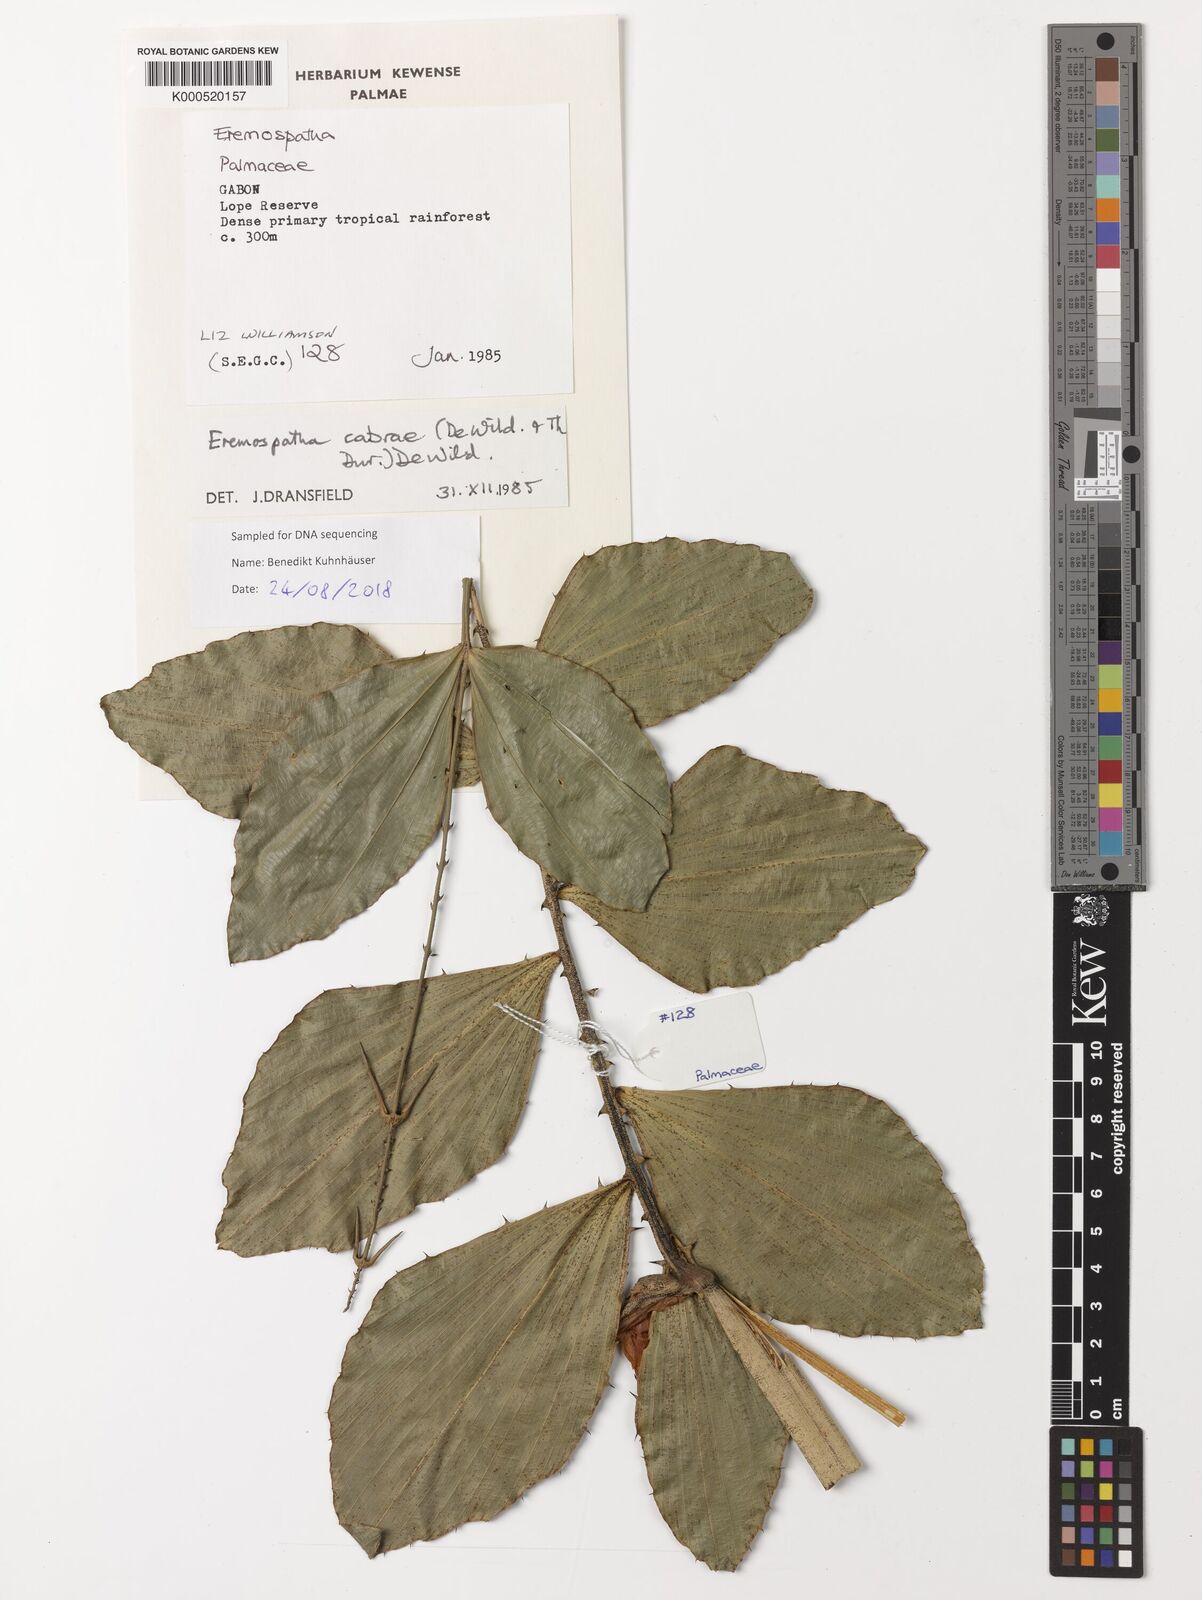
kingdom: Plantae
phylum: Tracheophyta
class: Liliopsida
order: Arecales
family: Arecaceae
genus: Eremospatha
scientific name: Eremospatha cabrae
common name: Rattan
